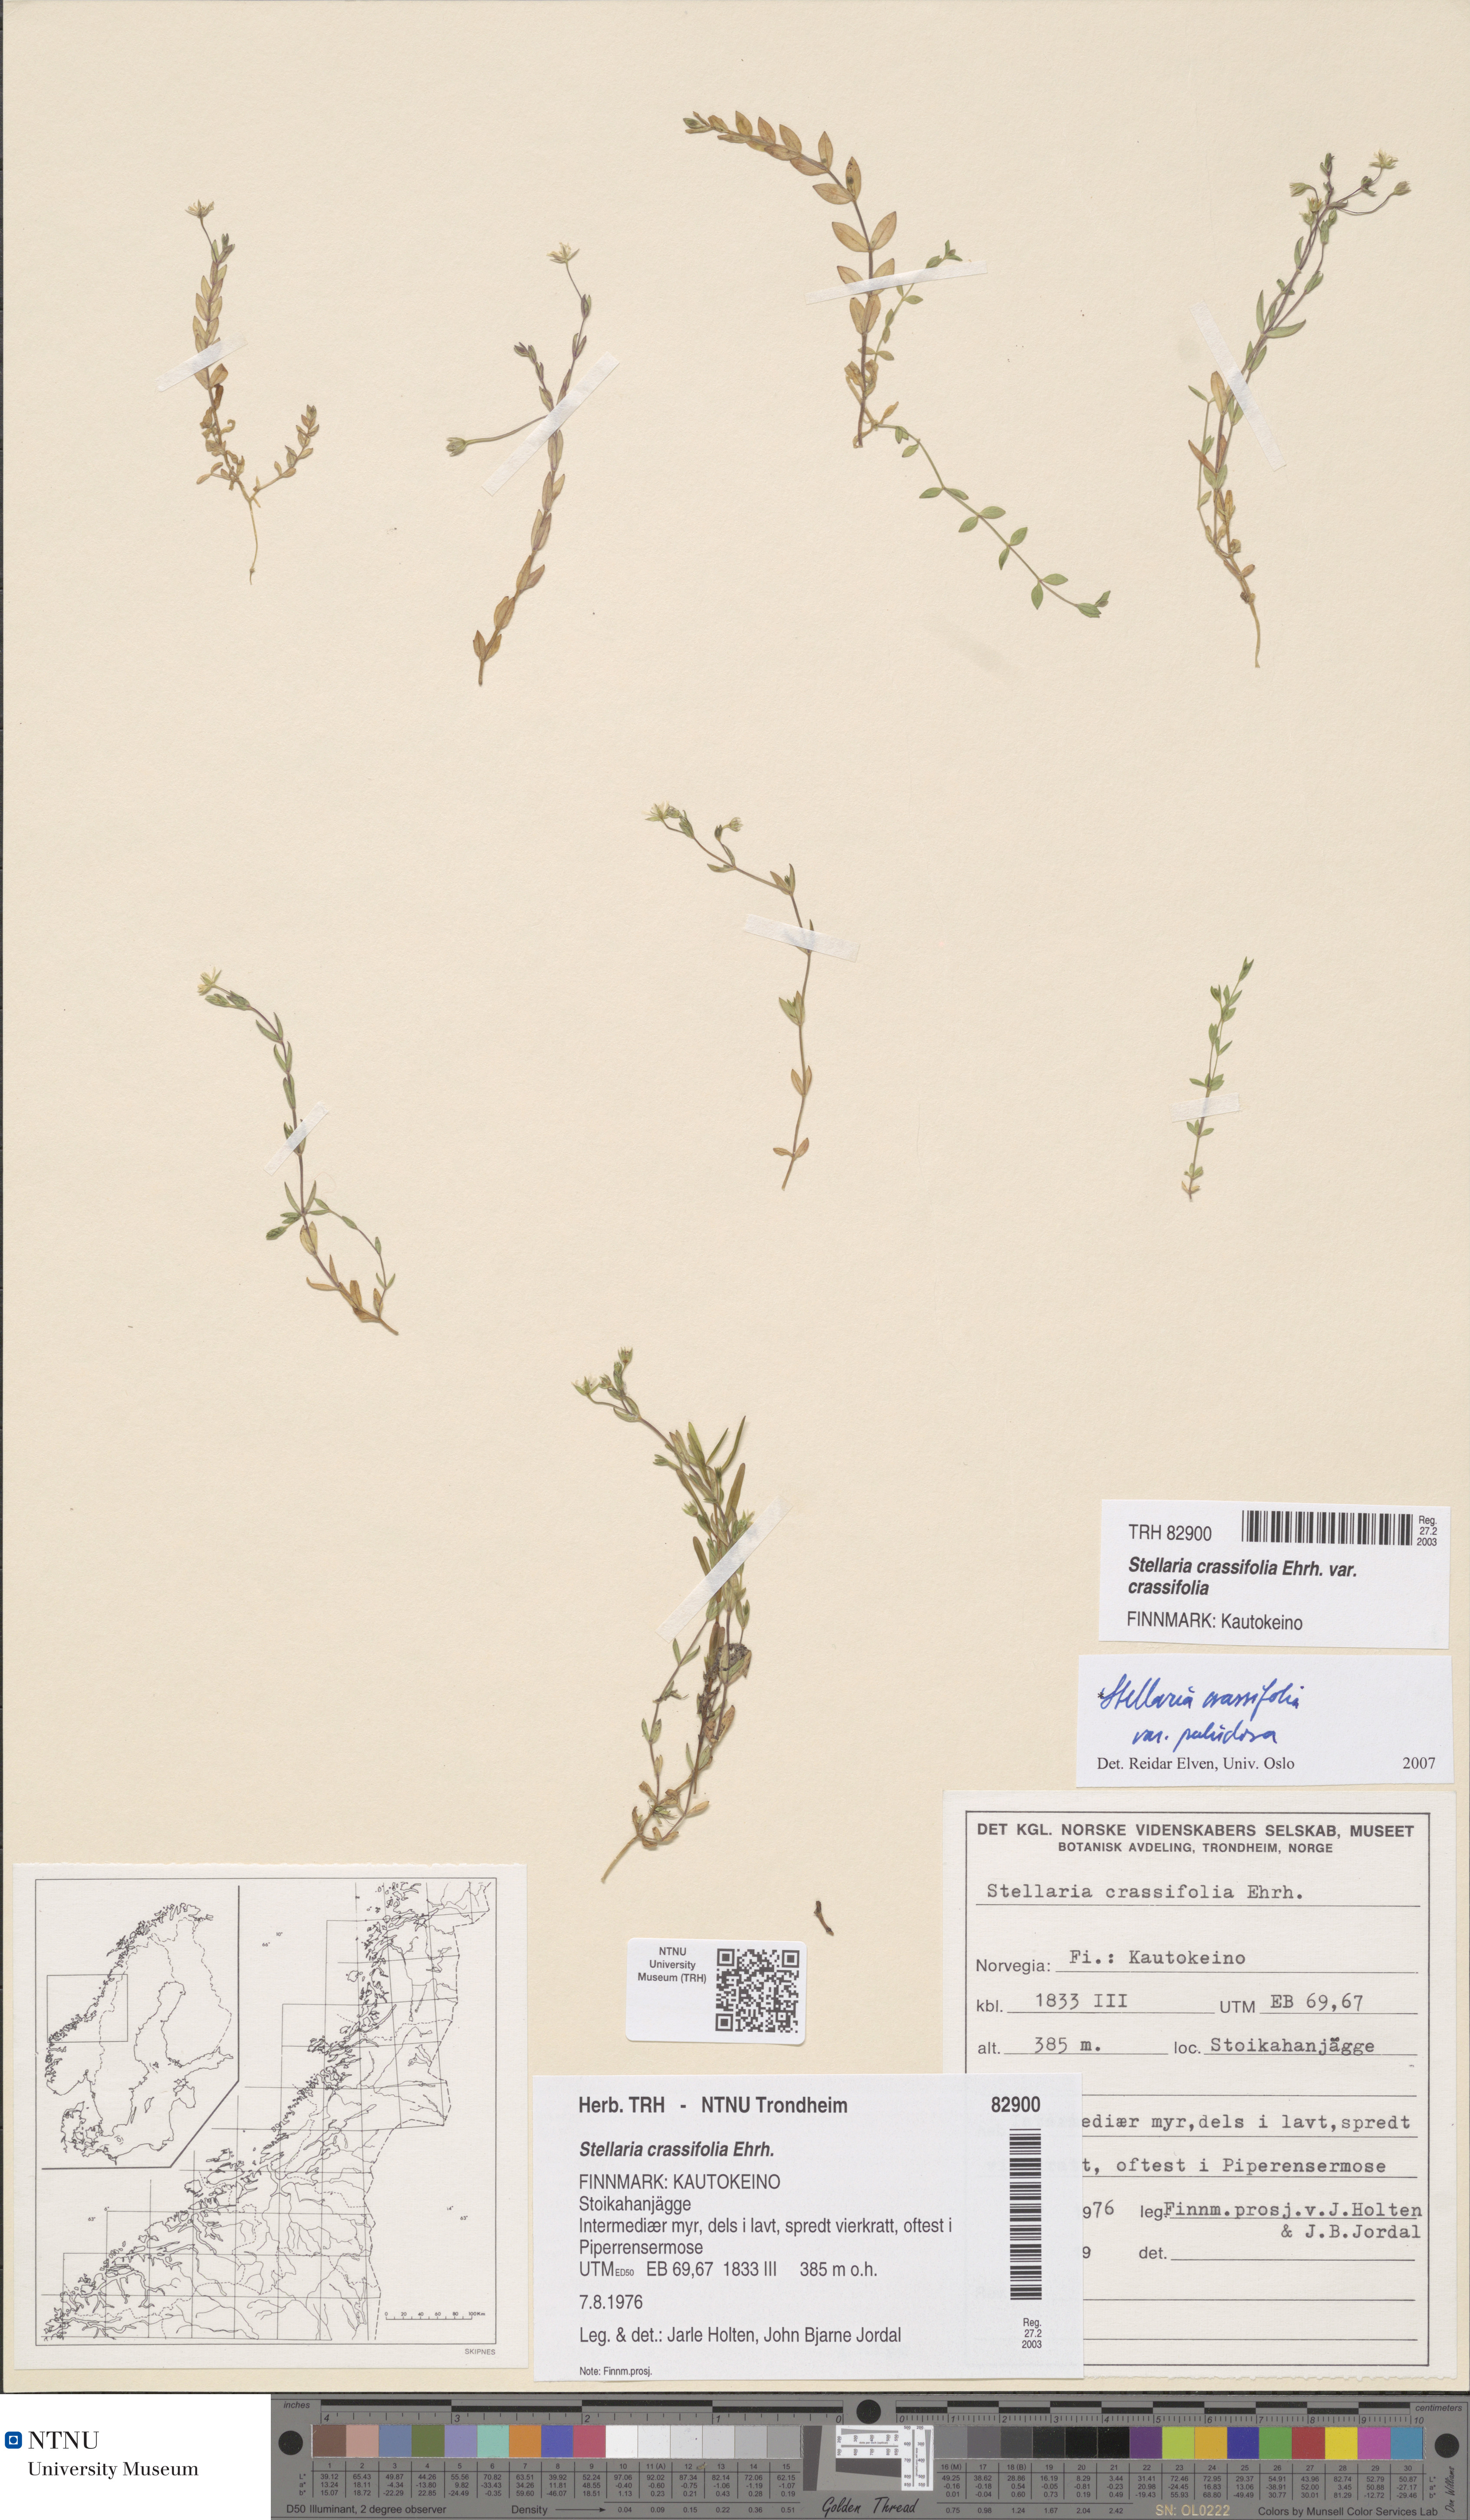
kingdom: Plantae
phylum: Tracheophyta
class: Magnoliopsida
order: Caryophyllales
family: Caryophyllaceae
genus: Stellaria
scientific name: Stellaria crassifolia
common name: Fleshy starwort
